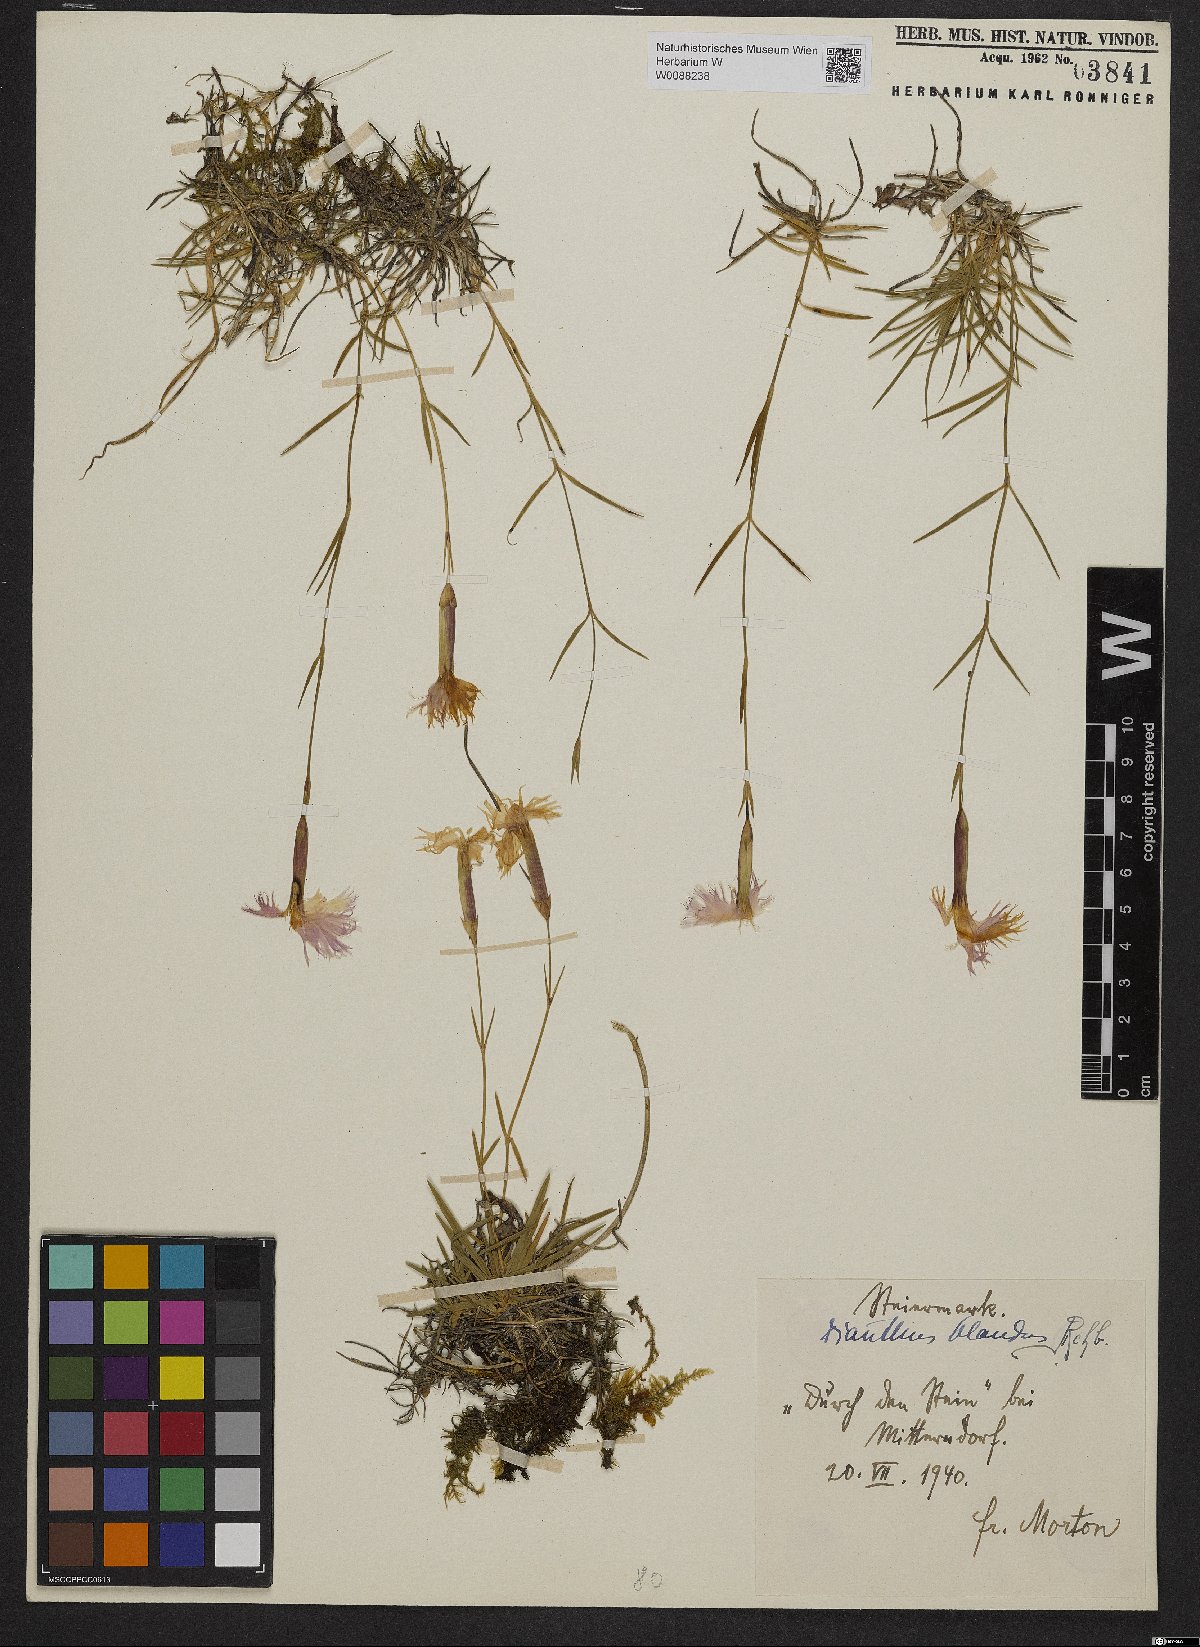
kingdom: Plantae
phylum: Tracheophyta
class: Magnoliopsida
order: Caryophyllales
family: Caryophyllaceae
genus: Dianthus
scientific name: Dianthus plumarius
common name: Pink
